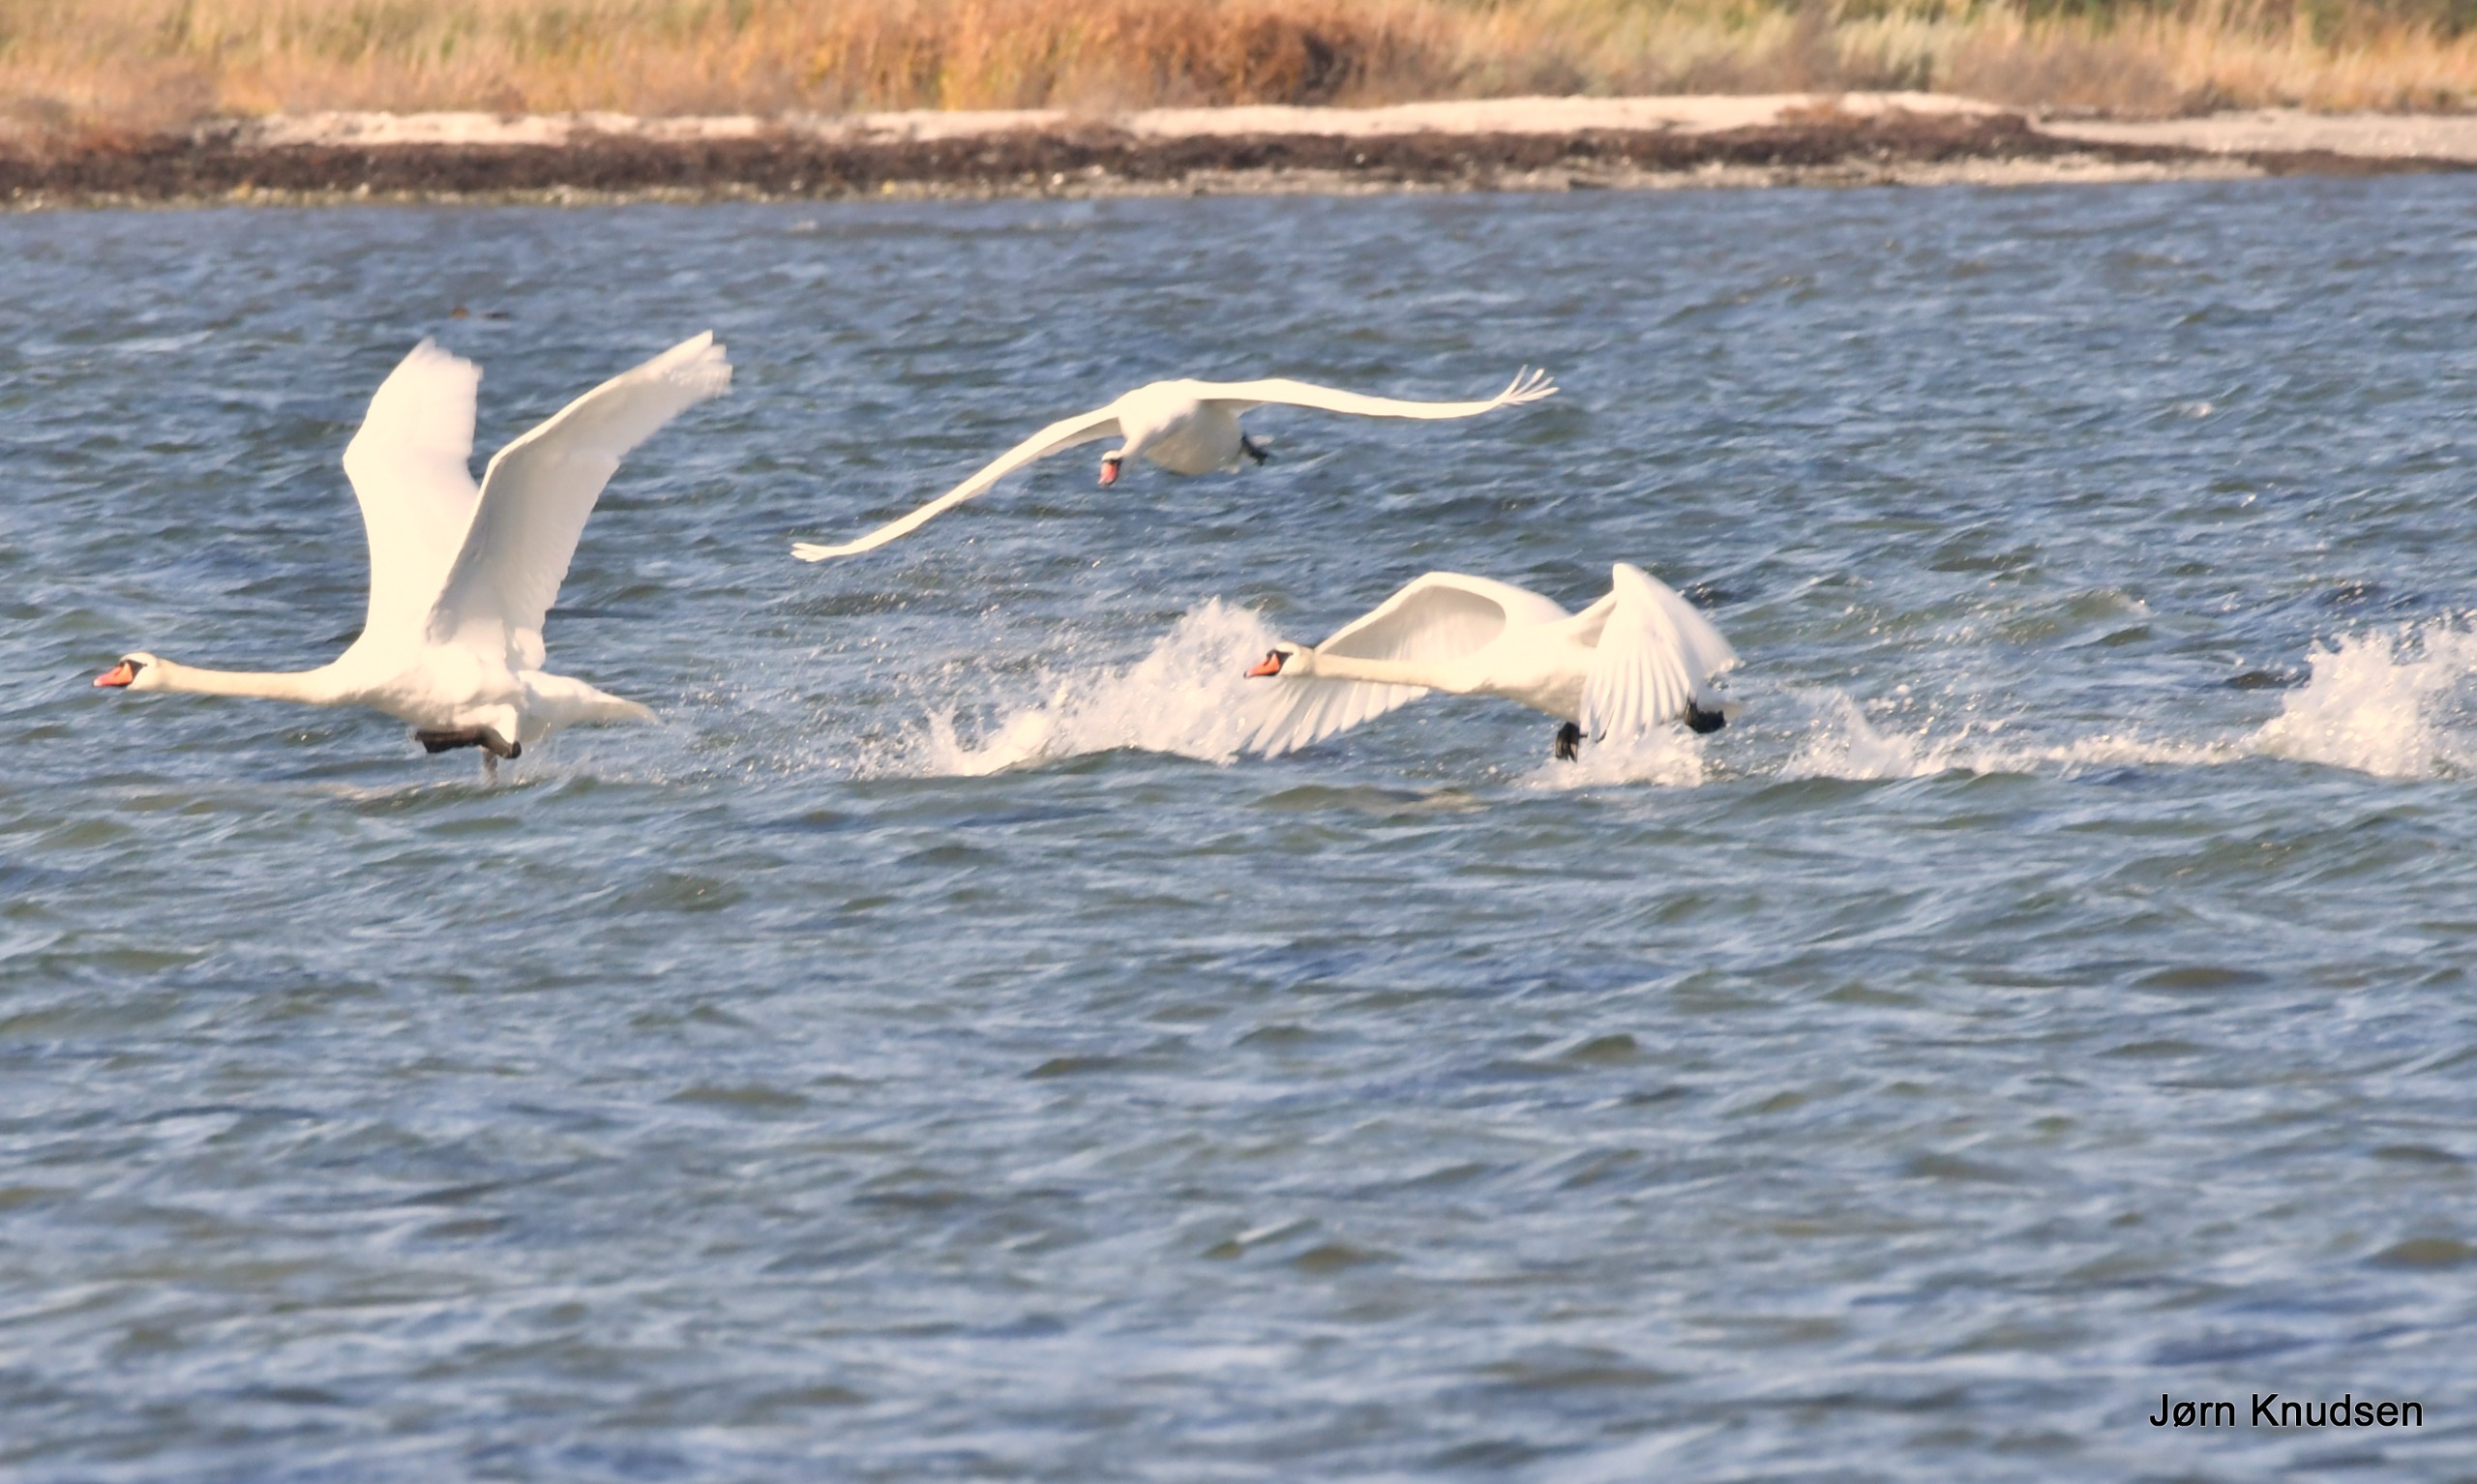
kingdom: Animalia
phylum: Chordata
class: Aves
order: Anseriformes
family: Anatidae
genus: Cygnus
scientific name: Cygnus olor
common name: Knopsvane
